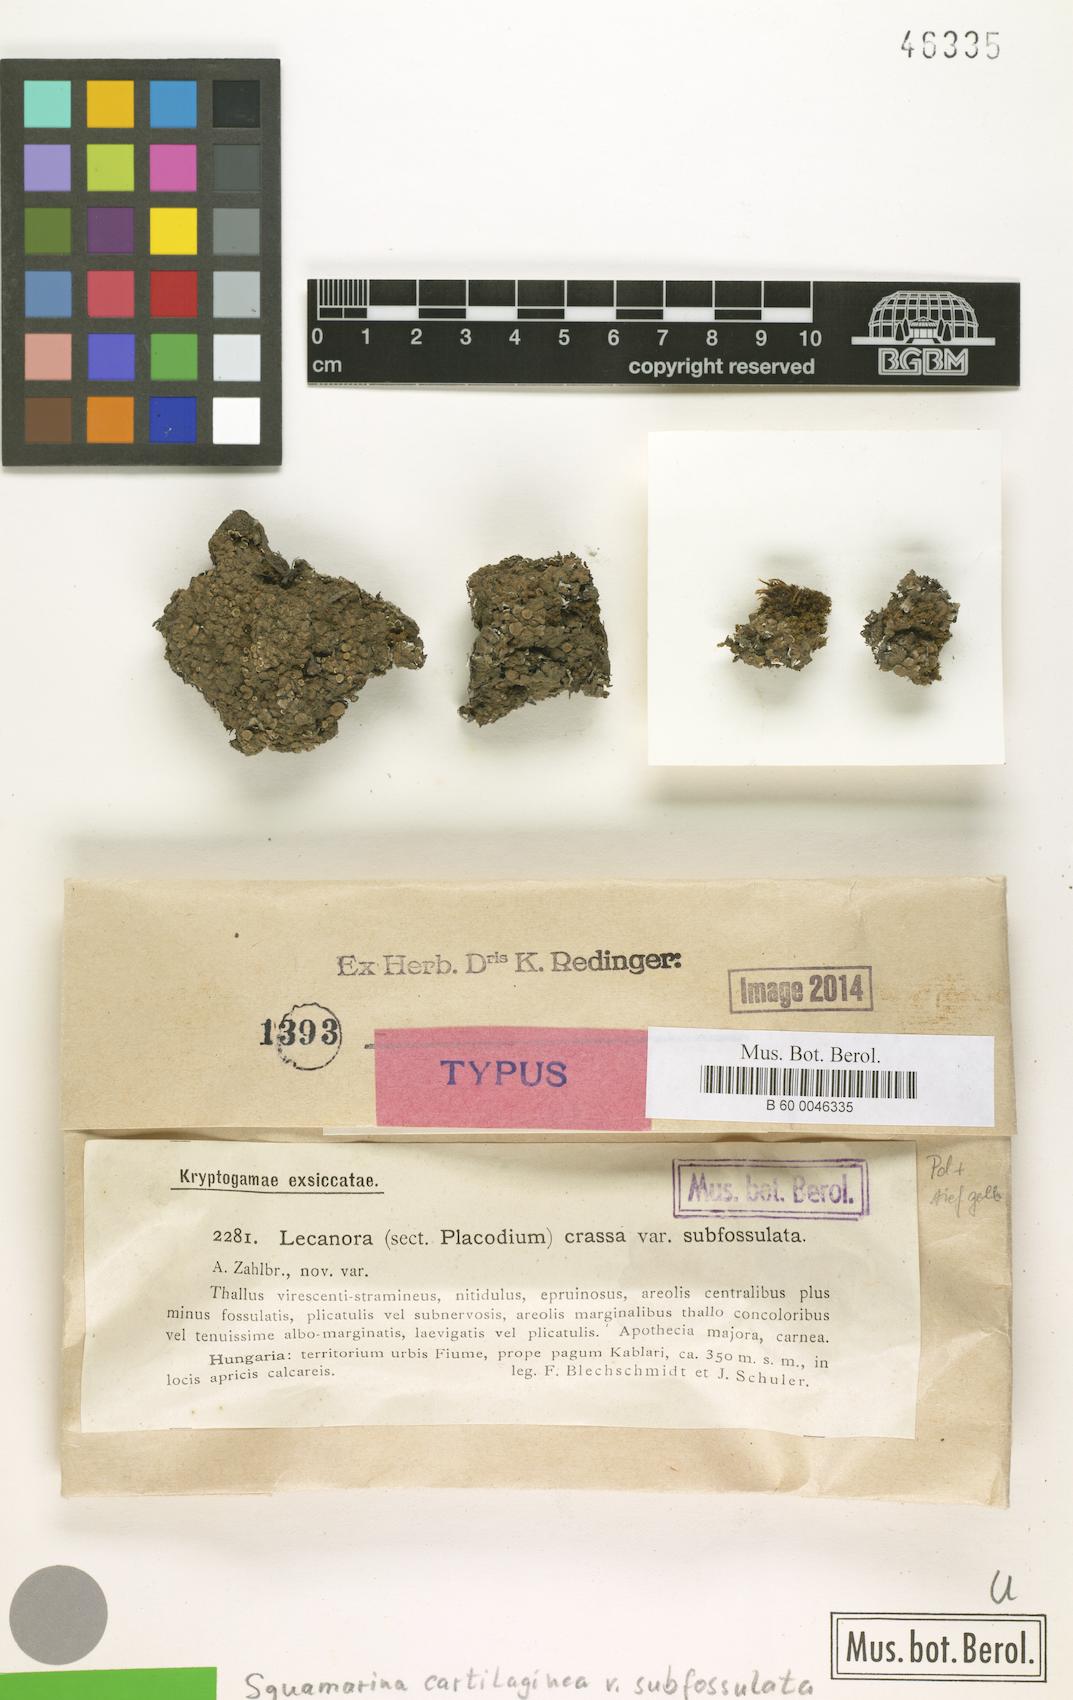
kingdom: Fungi
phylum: Ascomycota
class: Lecanoromycetes
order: Lecanorales
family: Stereocaulaceae
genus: Squamarina
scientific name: Squamarina cartilaginea
